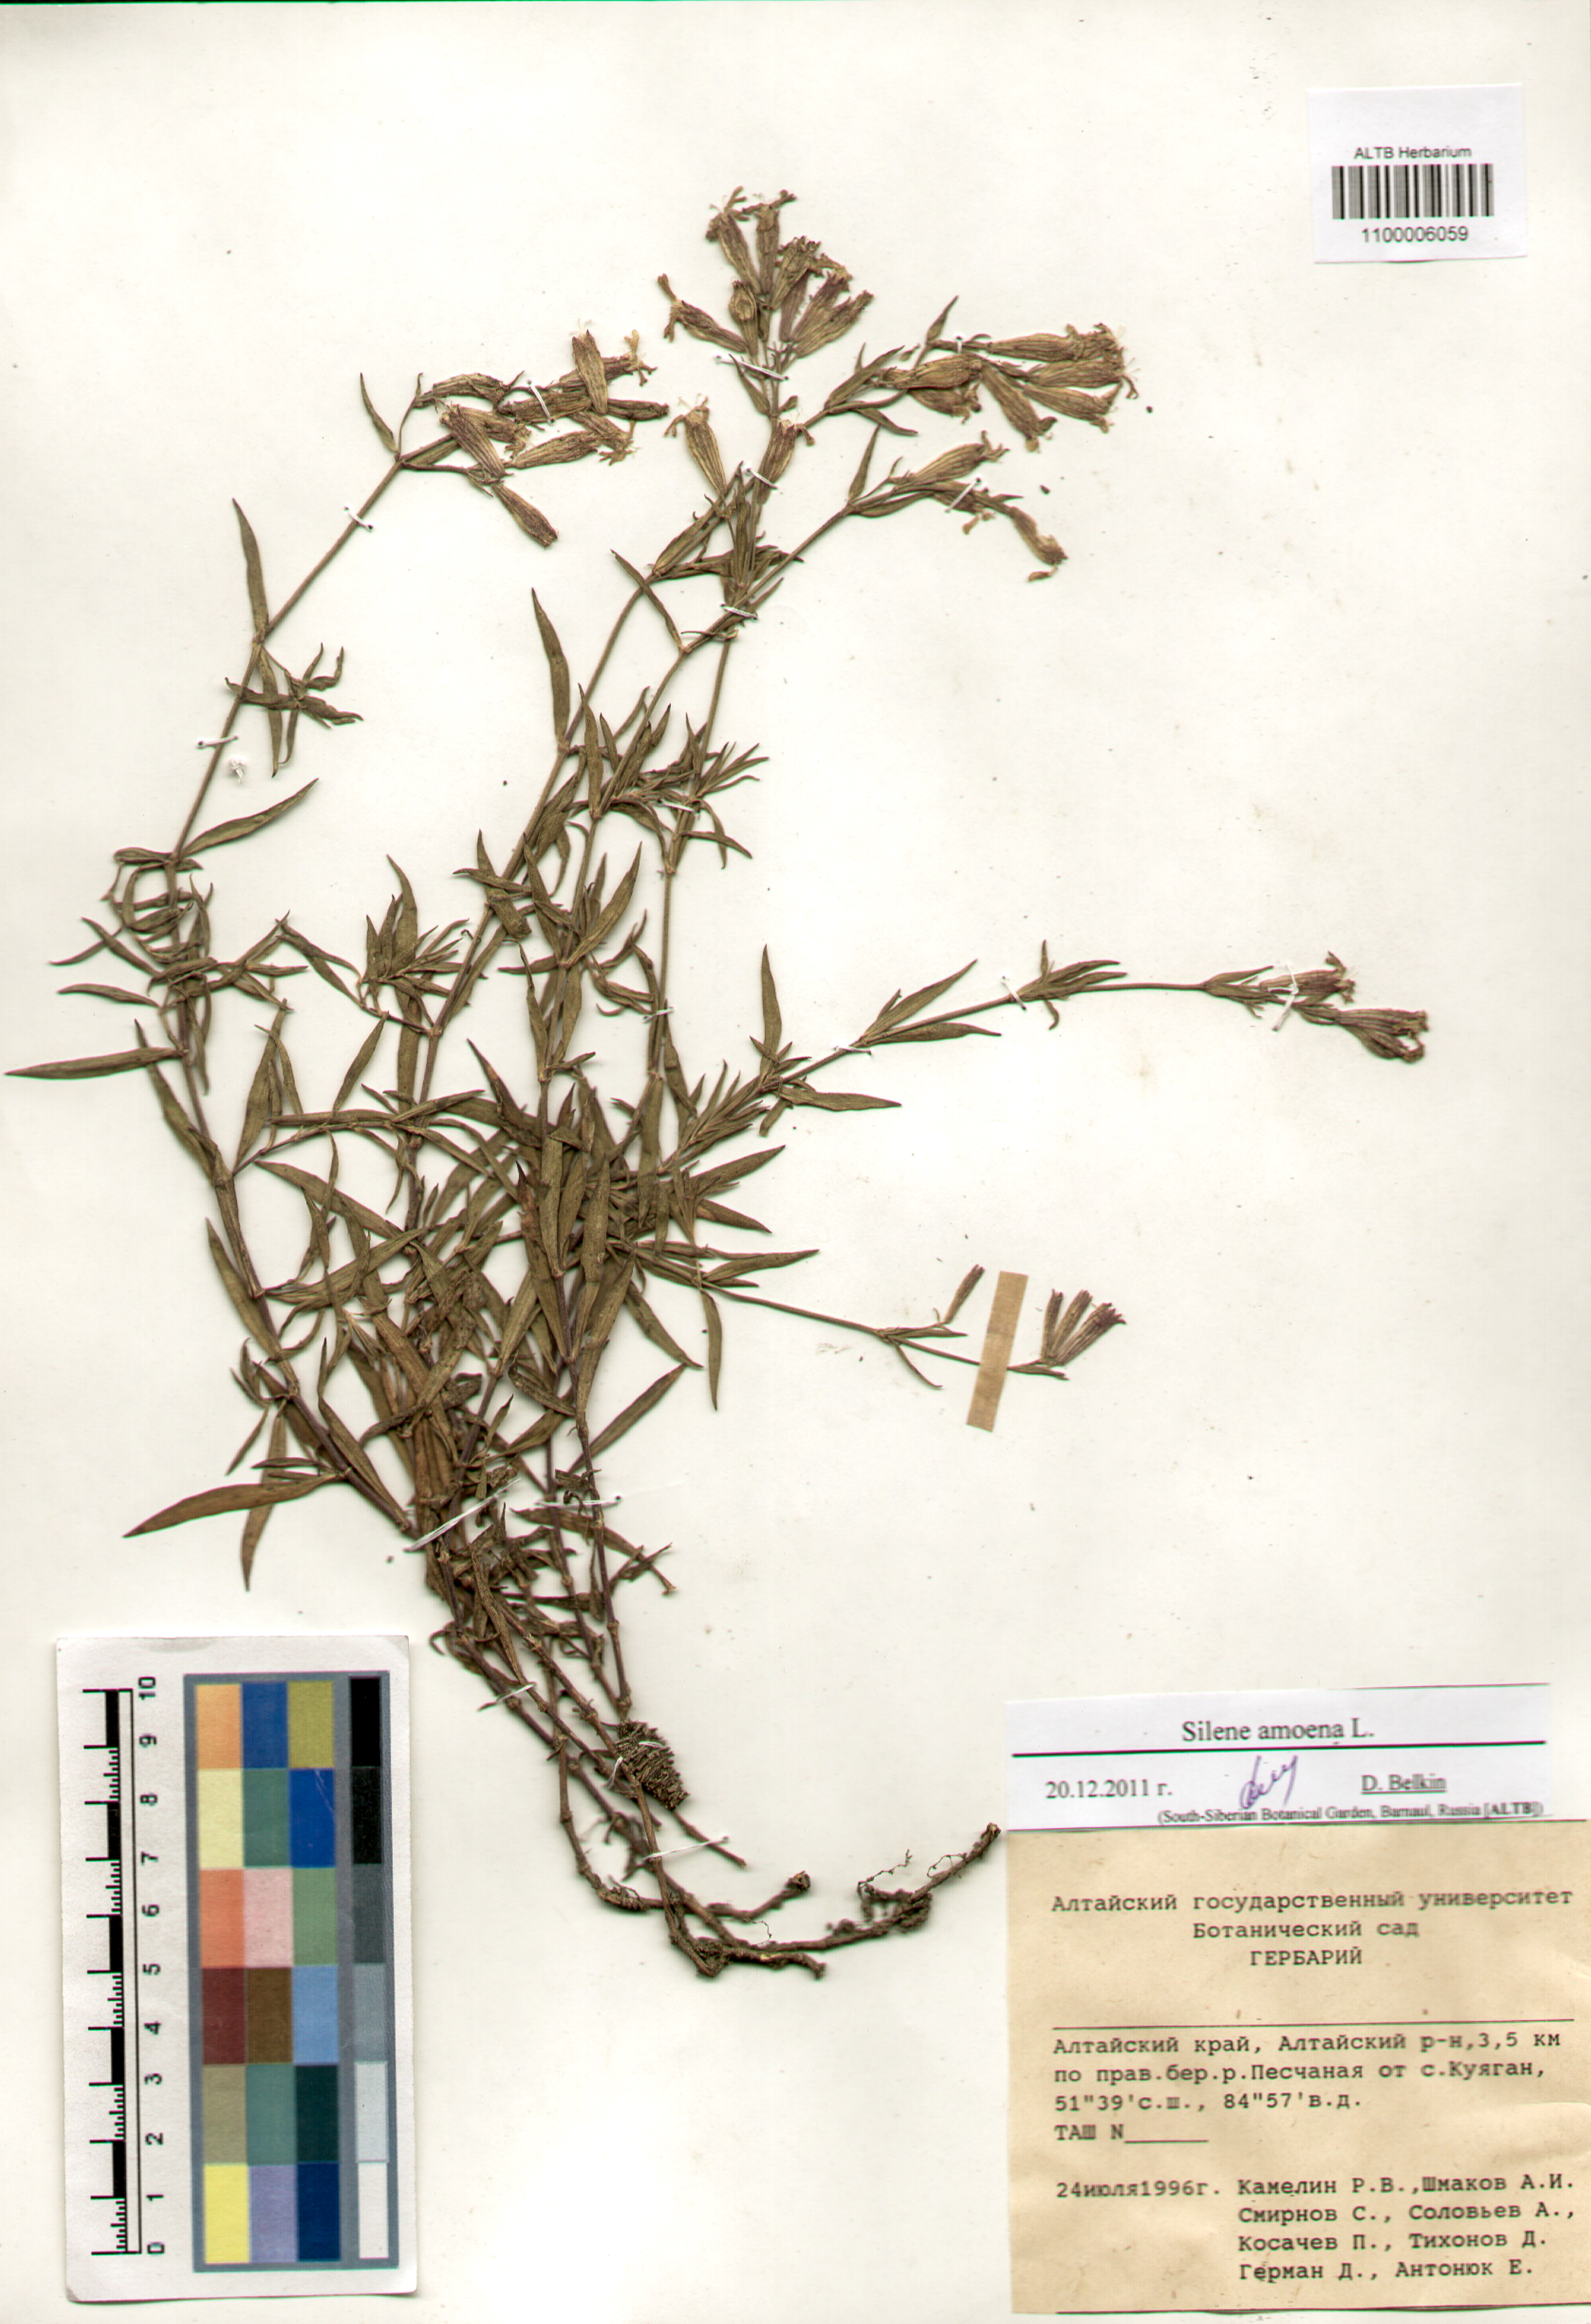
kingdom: Plantae
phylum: Tracheophyta
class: Magnoliopsida
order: Caryophyllales
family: Caryophyllaceae
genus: Silene
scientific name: Silene amoena
